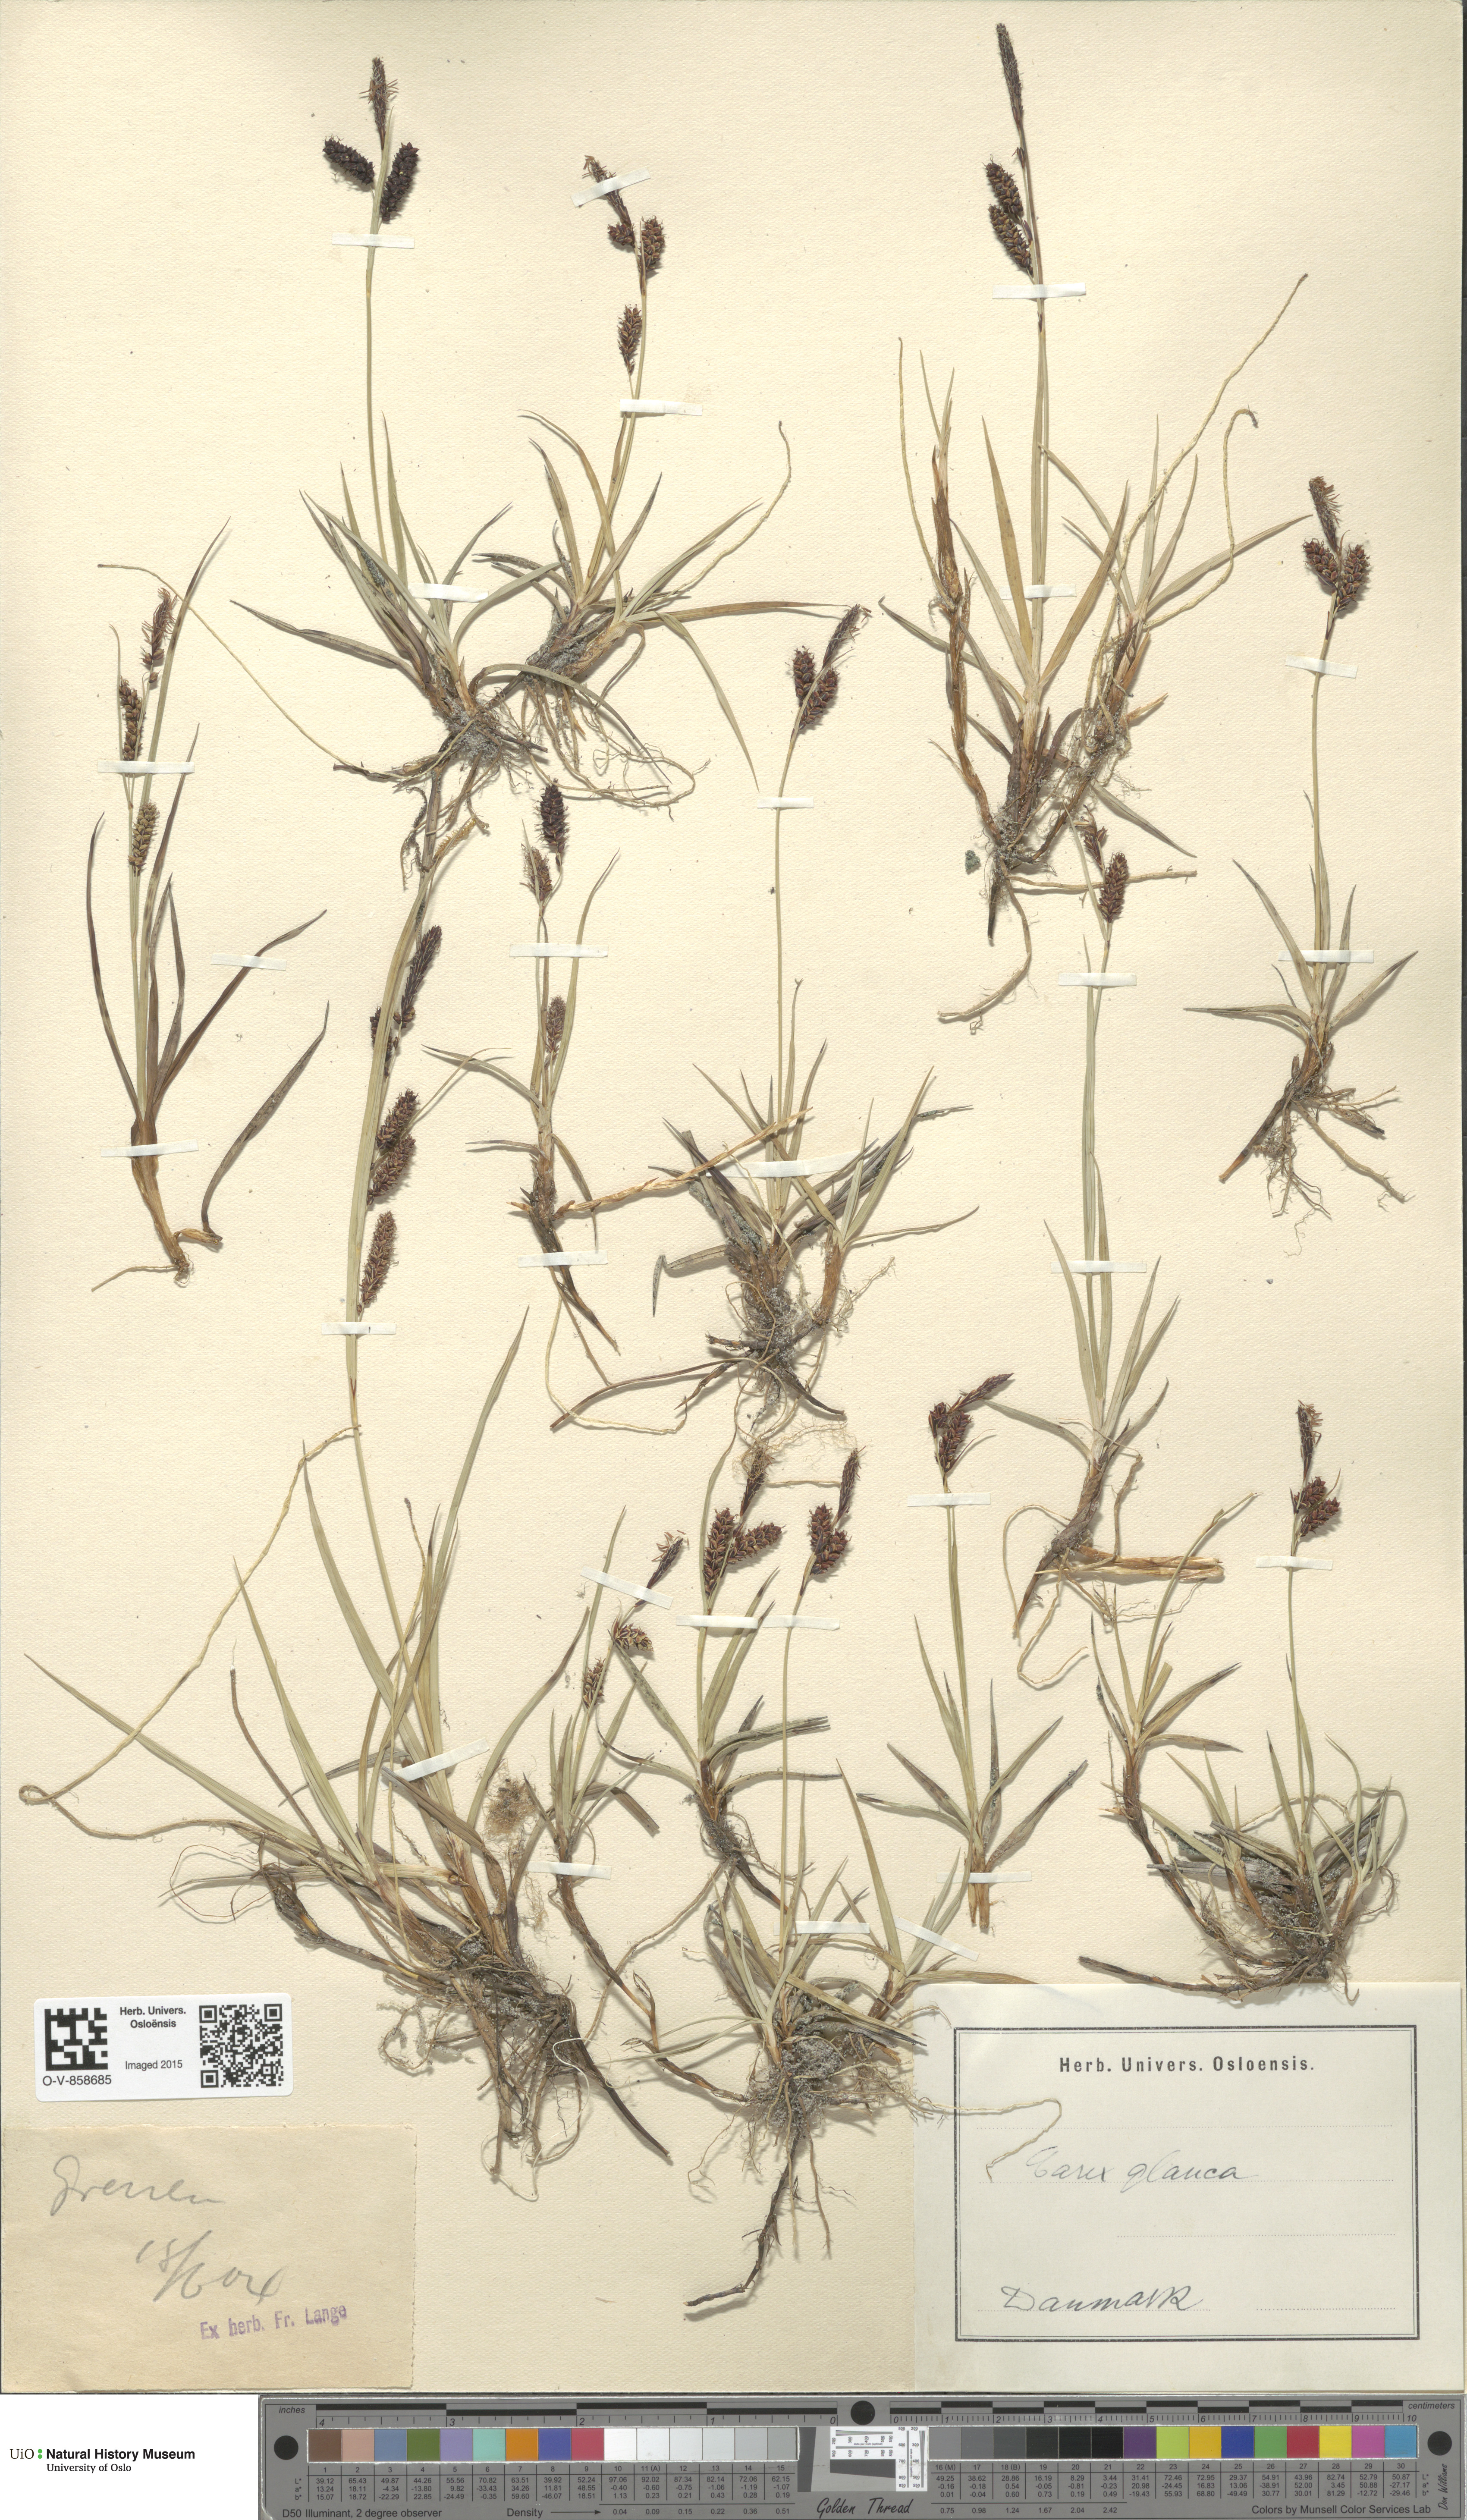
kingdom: Plantae
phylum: Tracheophyta
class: Liliopsida
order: Poales
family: Cyperaceae
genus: Carex
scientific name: Carex flacca
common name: Glaucous sedge
